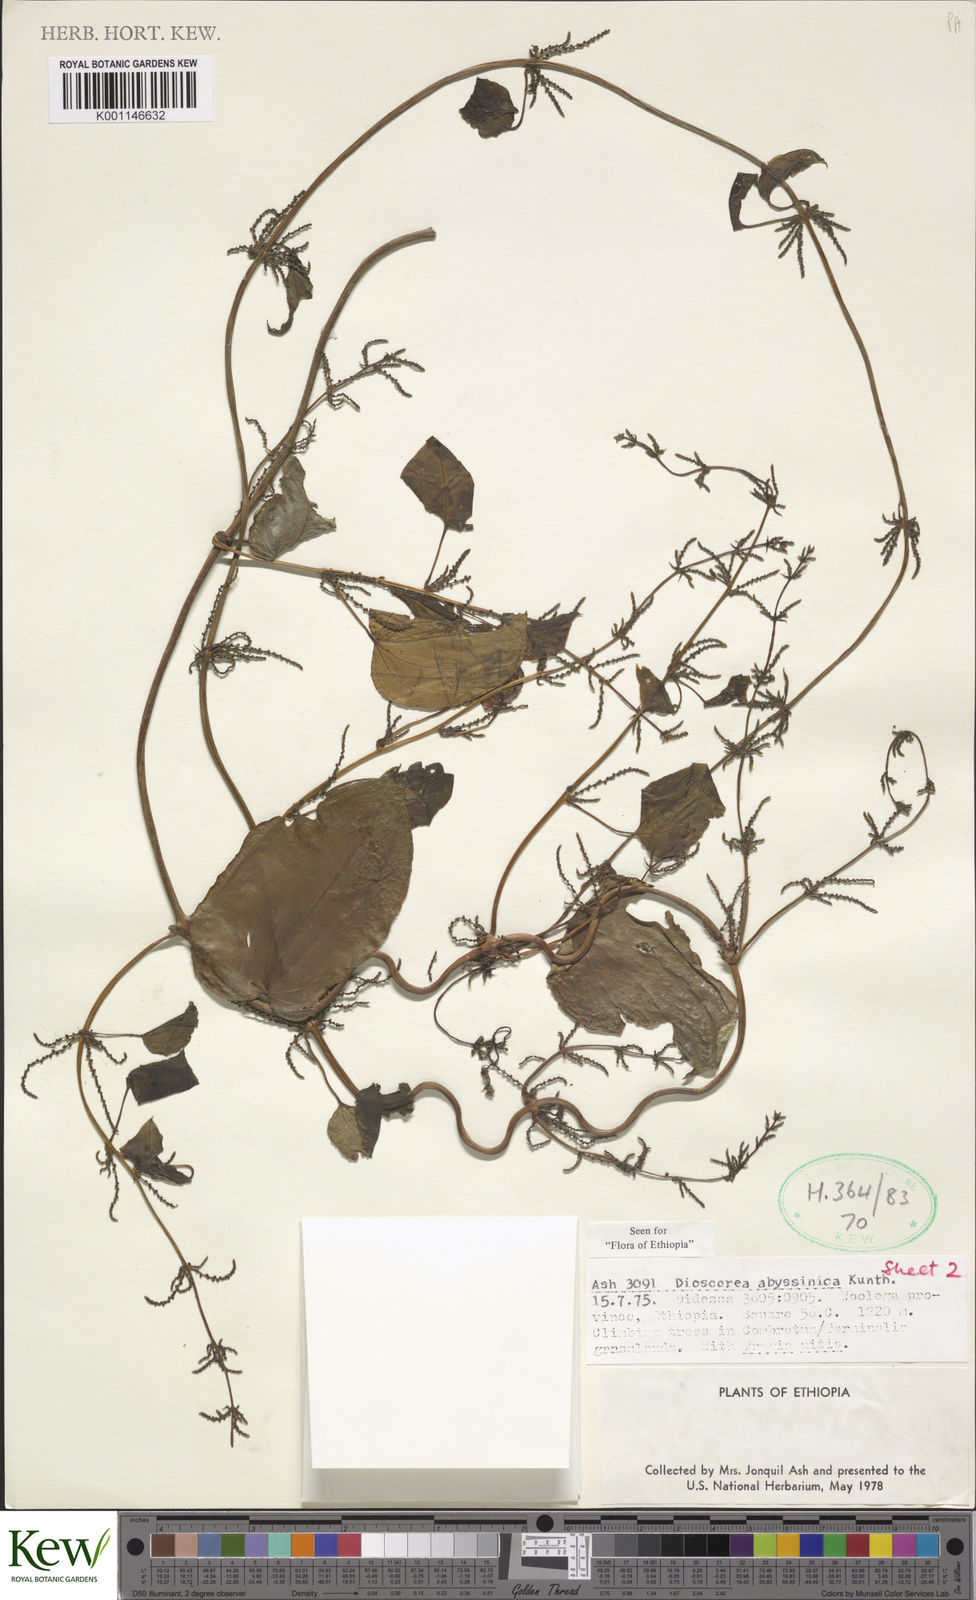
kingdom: Plantae
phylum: Tracheophyta
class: Liliopsida
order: Dioscoreales
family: Dioscoreaceae
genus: Dioscorea
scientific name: Dioscorea abyssinica
